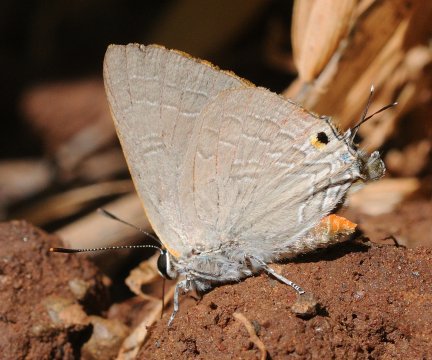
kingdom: Animalia
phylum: Arthropoda
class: Insecta
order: Lepidoptera
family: Lycaenidae
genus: Deudorix
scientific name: Deudorix diocles
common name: Orange-barred Playboy
